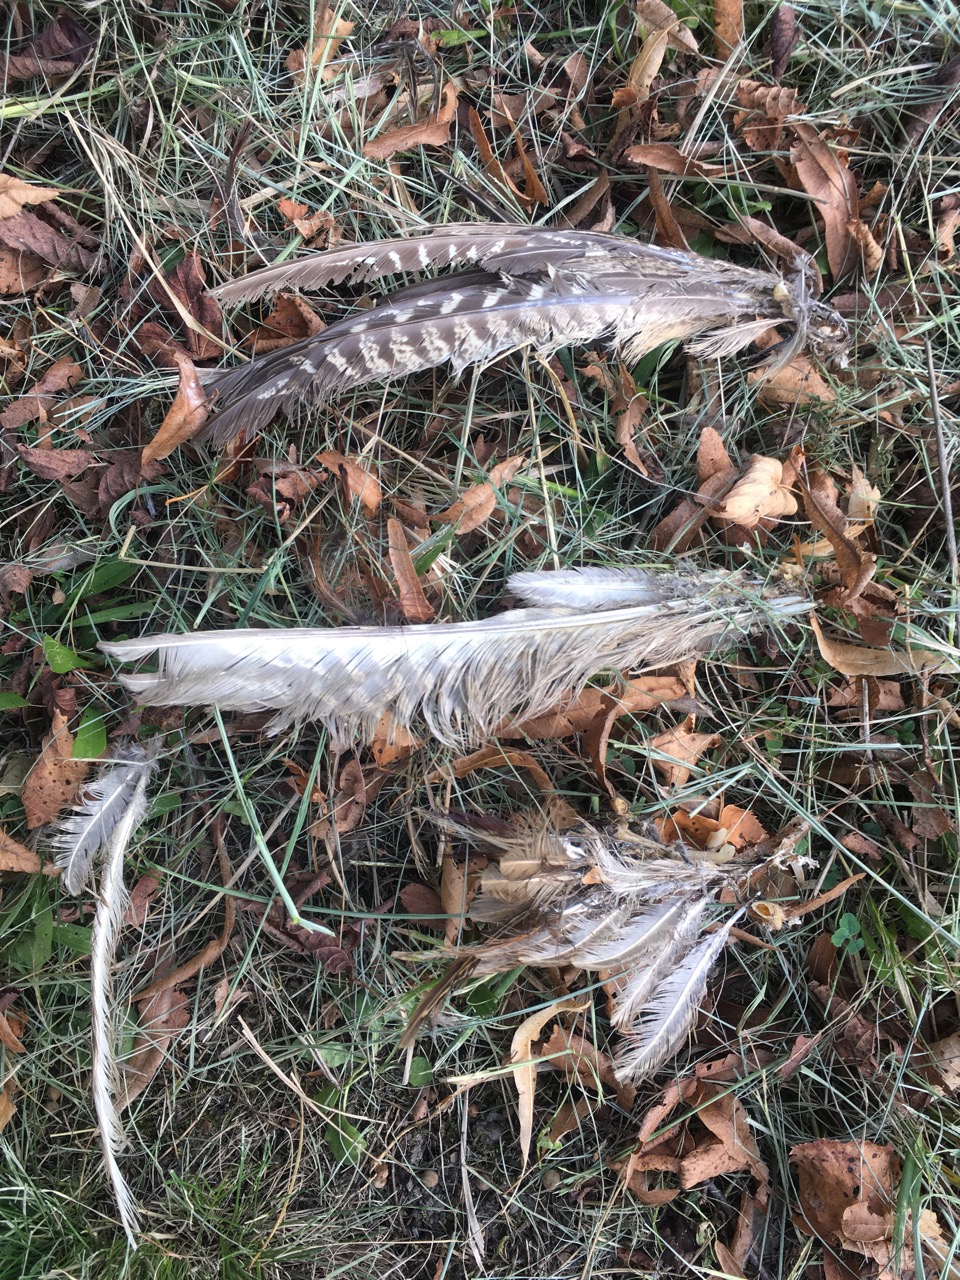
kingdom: Animalia
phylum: Chordata
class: Aves
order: Galliformes
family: Phasianidae
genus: Phasianus
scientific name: Phasianus colchicus
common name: Common pheasant
